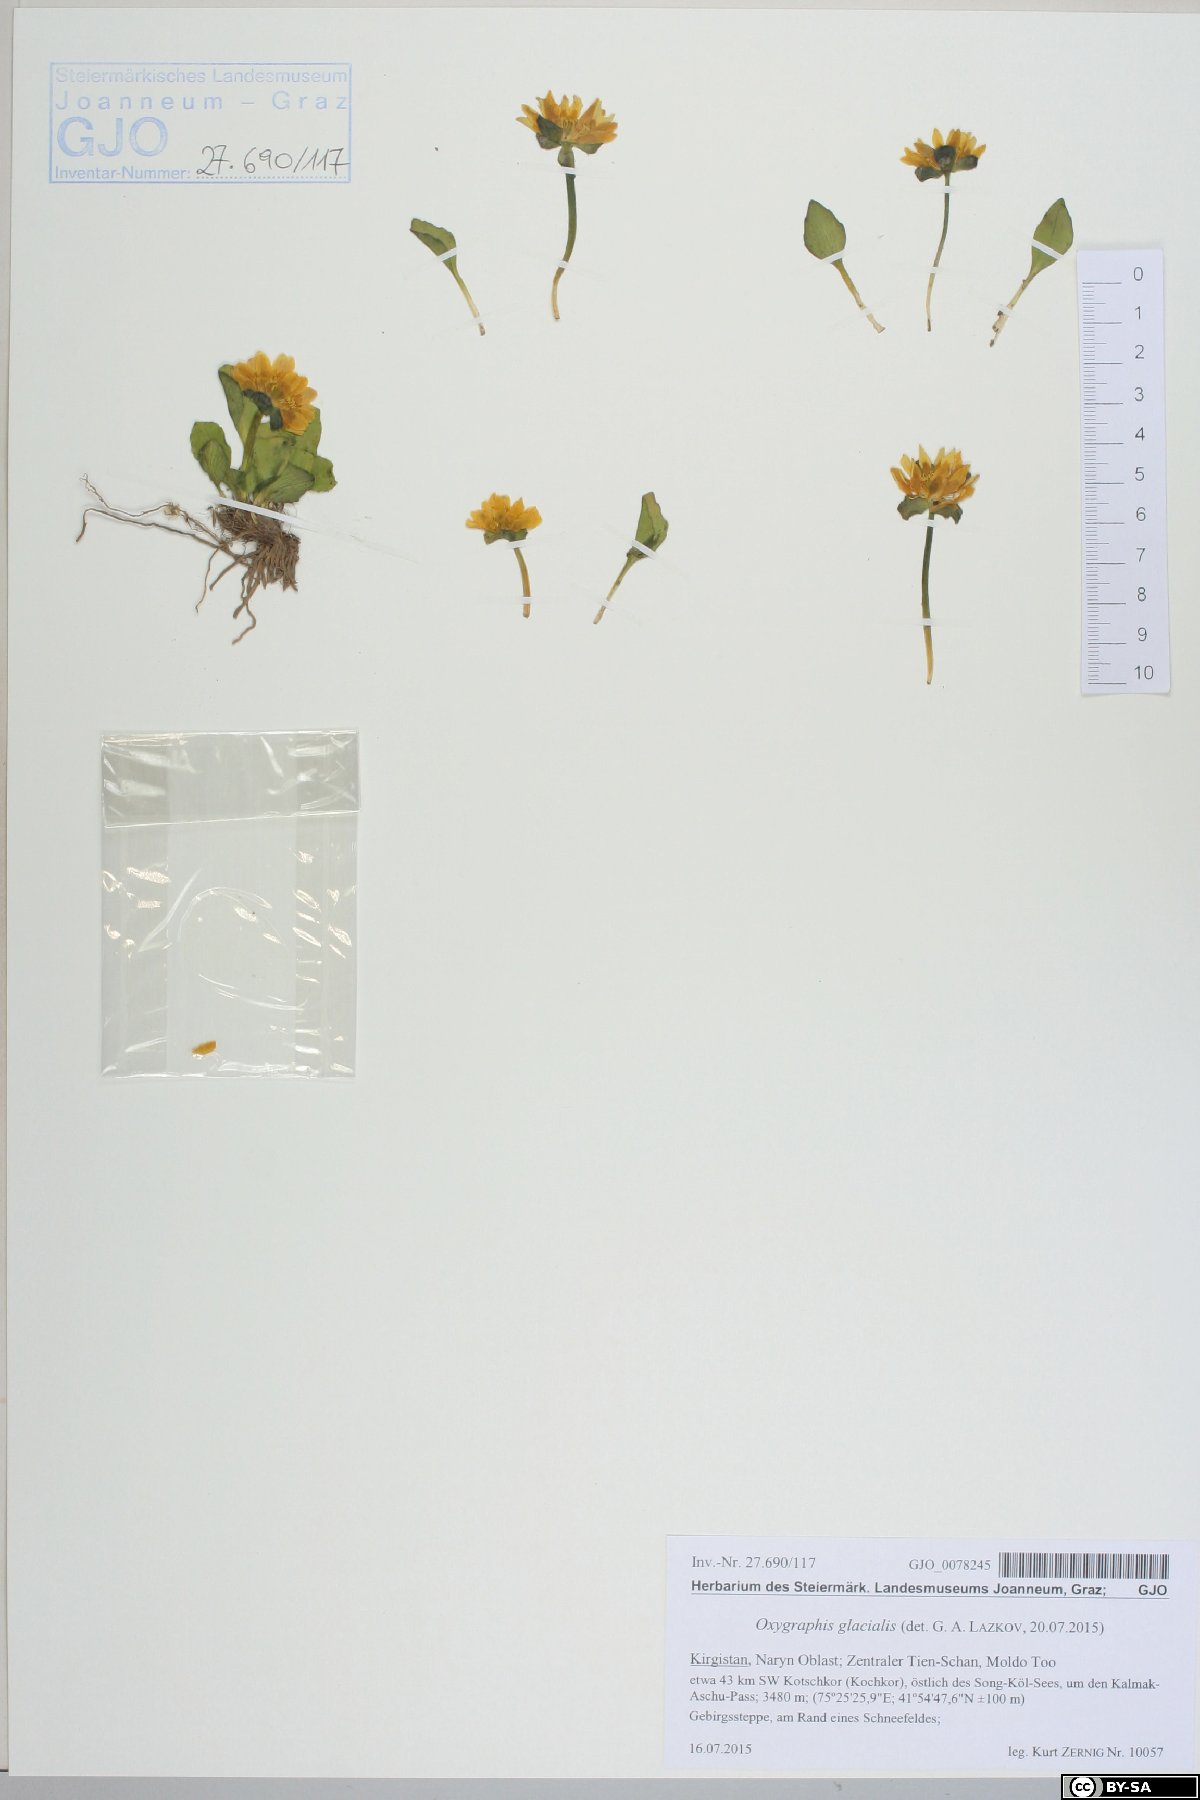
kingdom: Plantae
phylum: Tracheophyta
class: Magnoliopsida
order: Ranunculales
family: Ranunculaceae
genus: Oxygraphis
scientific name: Oxygraphis kamchatica
